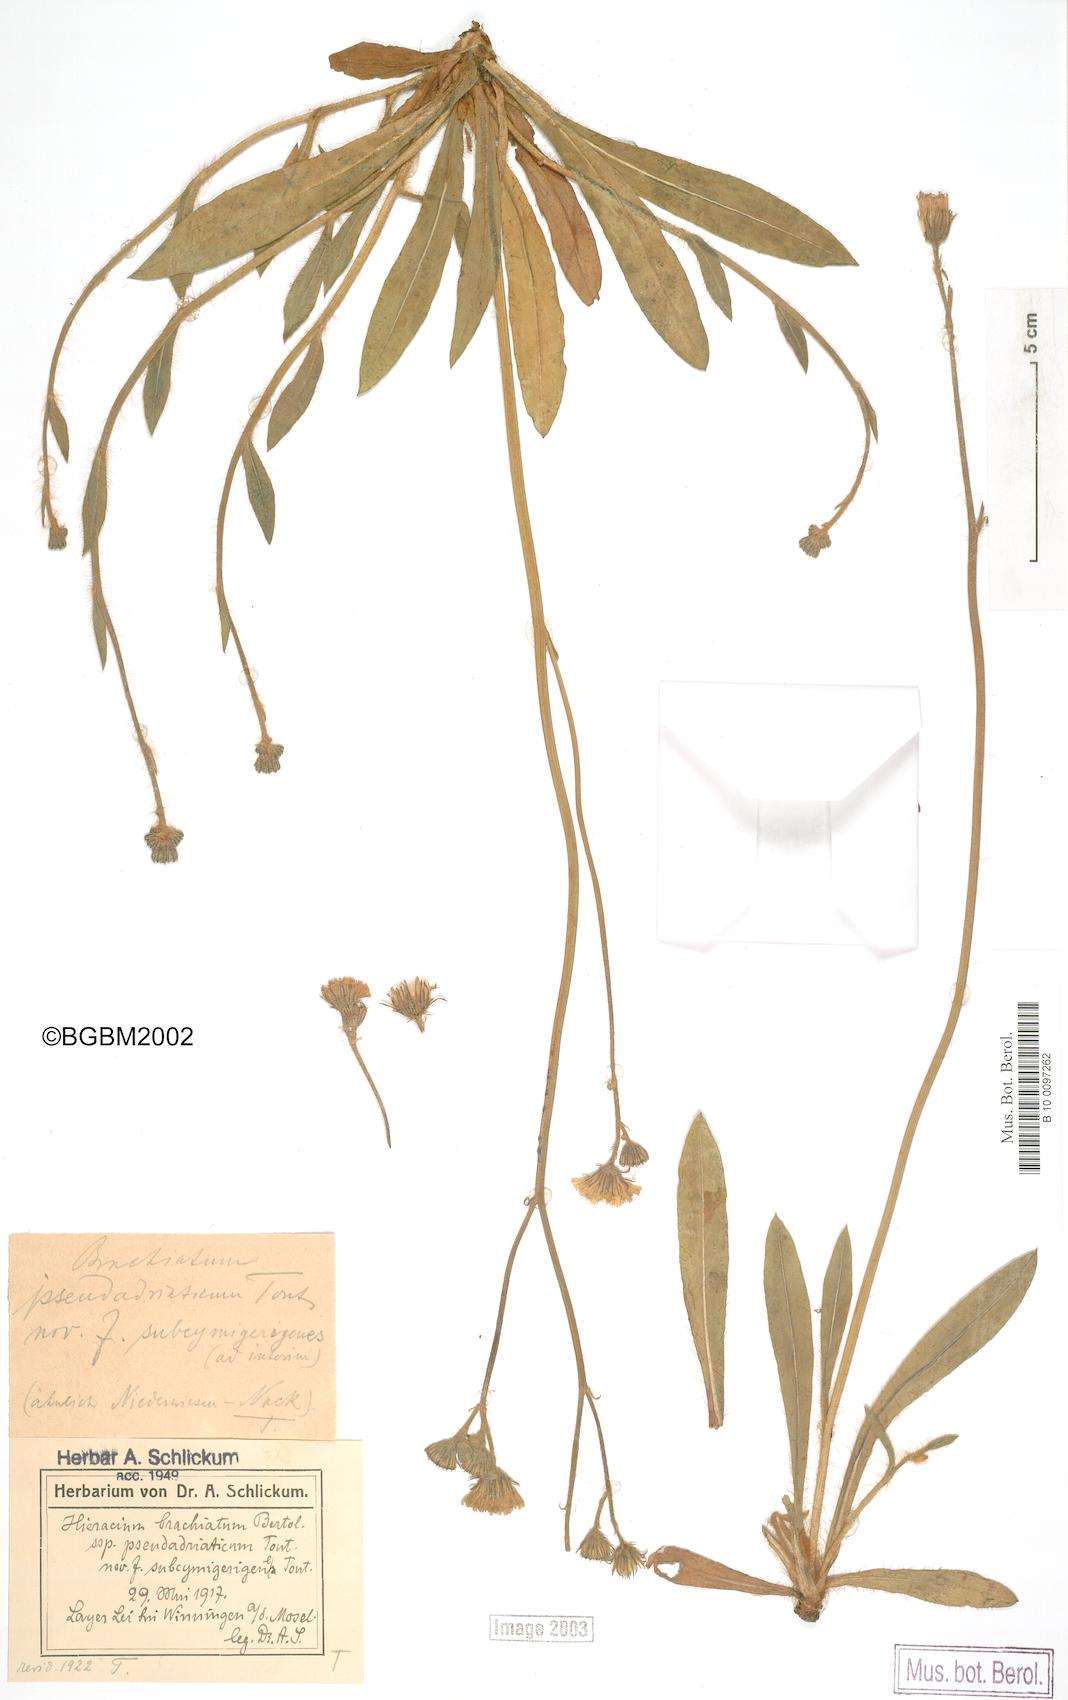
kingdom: Plantae
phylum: Tracheophyta
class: Magnoliopsida
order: Asterales
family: Asteraceae
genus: Pilosella
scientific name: Pilosella acutifolia
